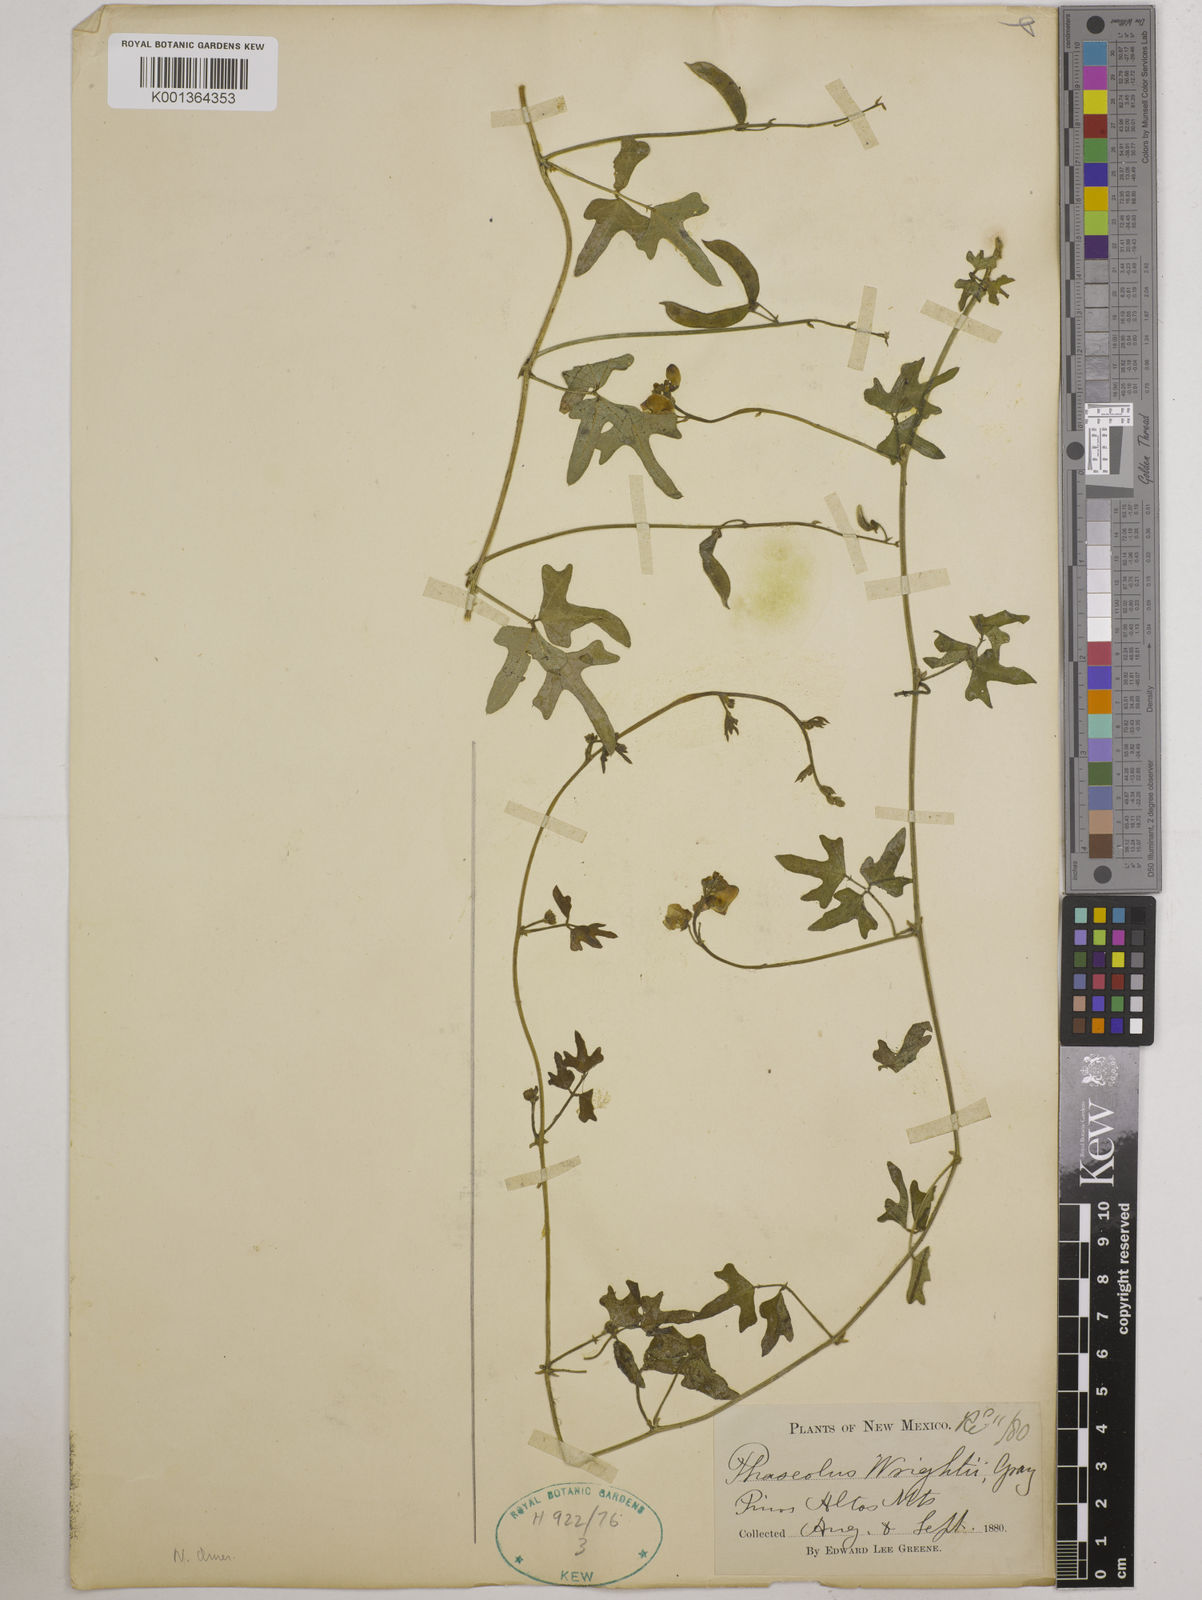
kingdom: Plantae
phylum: Tracheophyta
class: Magnoliopsida
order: Fabales
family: Fabaceae
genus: Vigna
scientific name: Vigna hainiana
